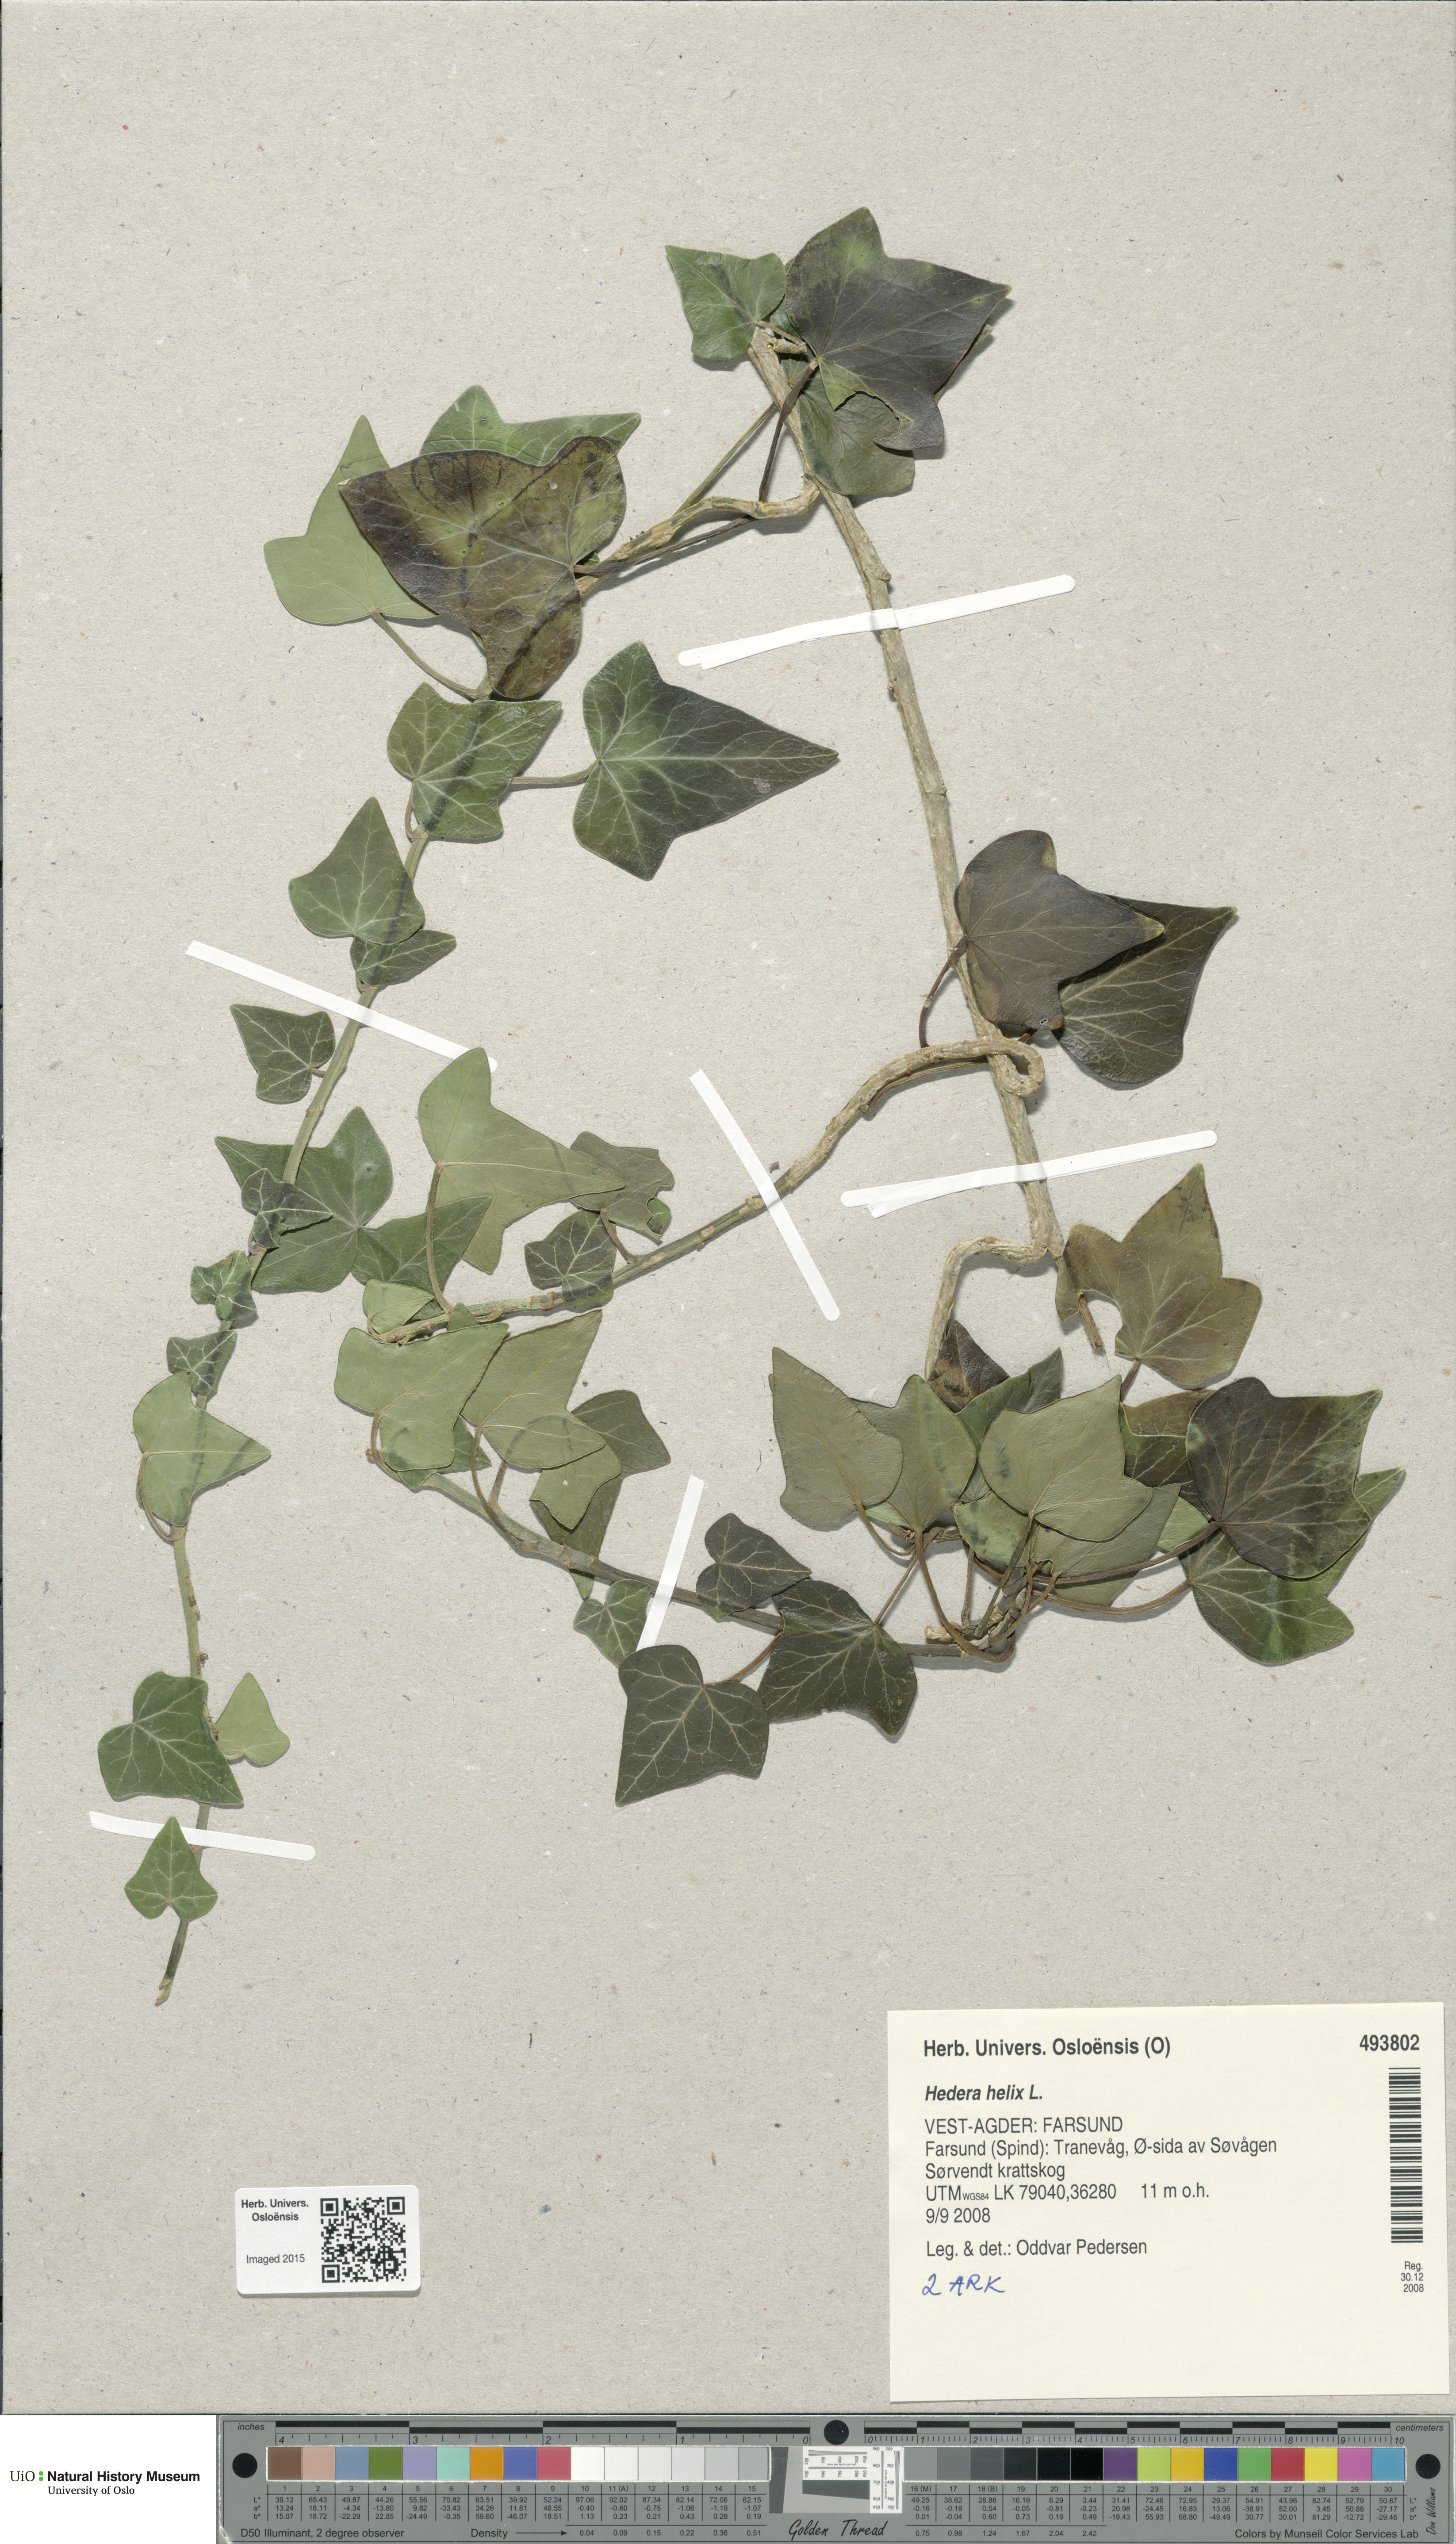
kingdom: Plantae
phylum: Tracheophyta
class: Magnoliopsida
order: Apiales
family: Araliaceae
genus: Hedera
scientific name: Hedera helix
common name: Ivy
